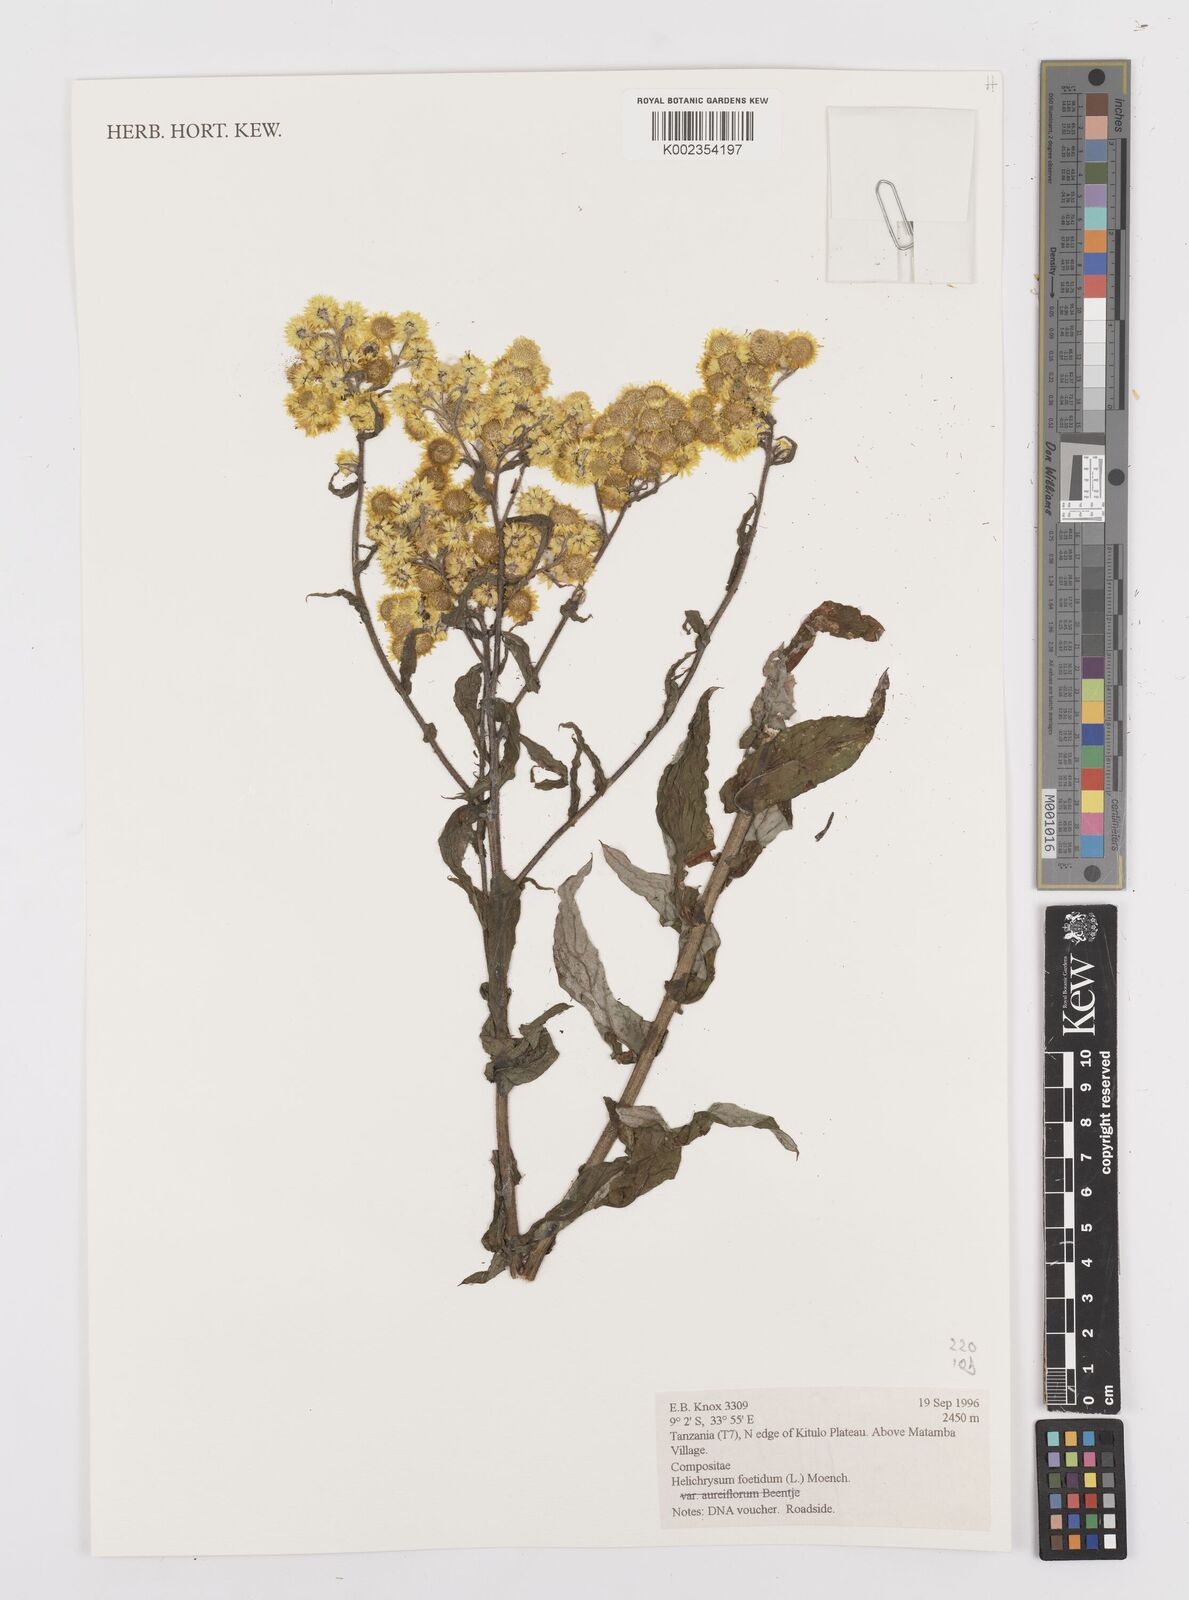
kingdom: Plantae
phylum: Tracheophyta
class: Magnoliopsida
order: Asterales
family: Asteraceae
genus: Helichrysum
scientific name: Helichrysum foetidum
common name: Stinking everlasting
